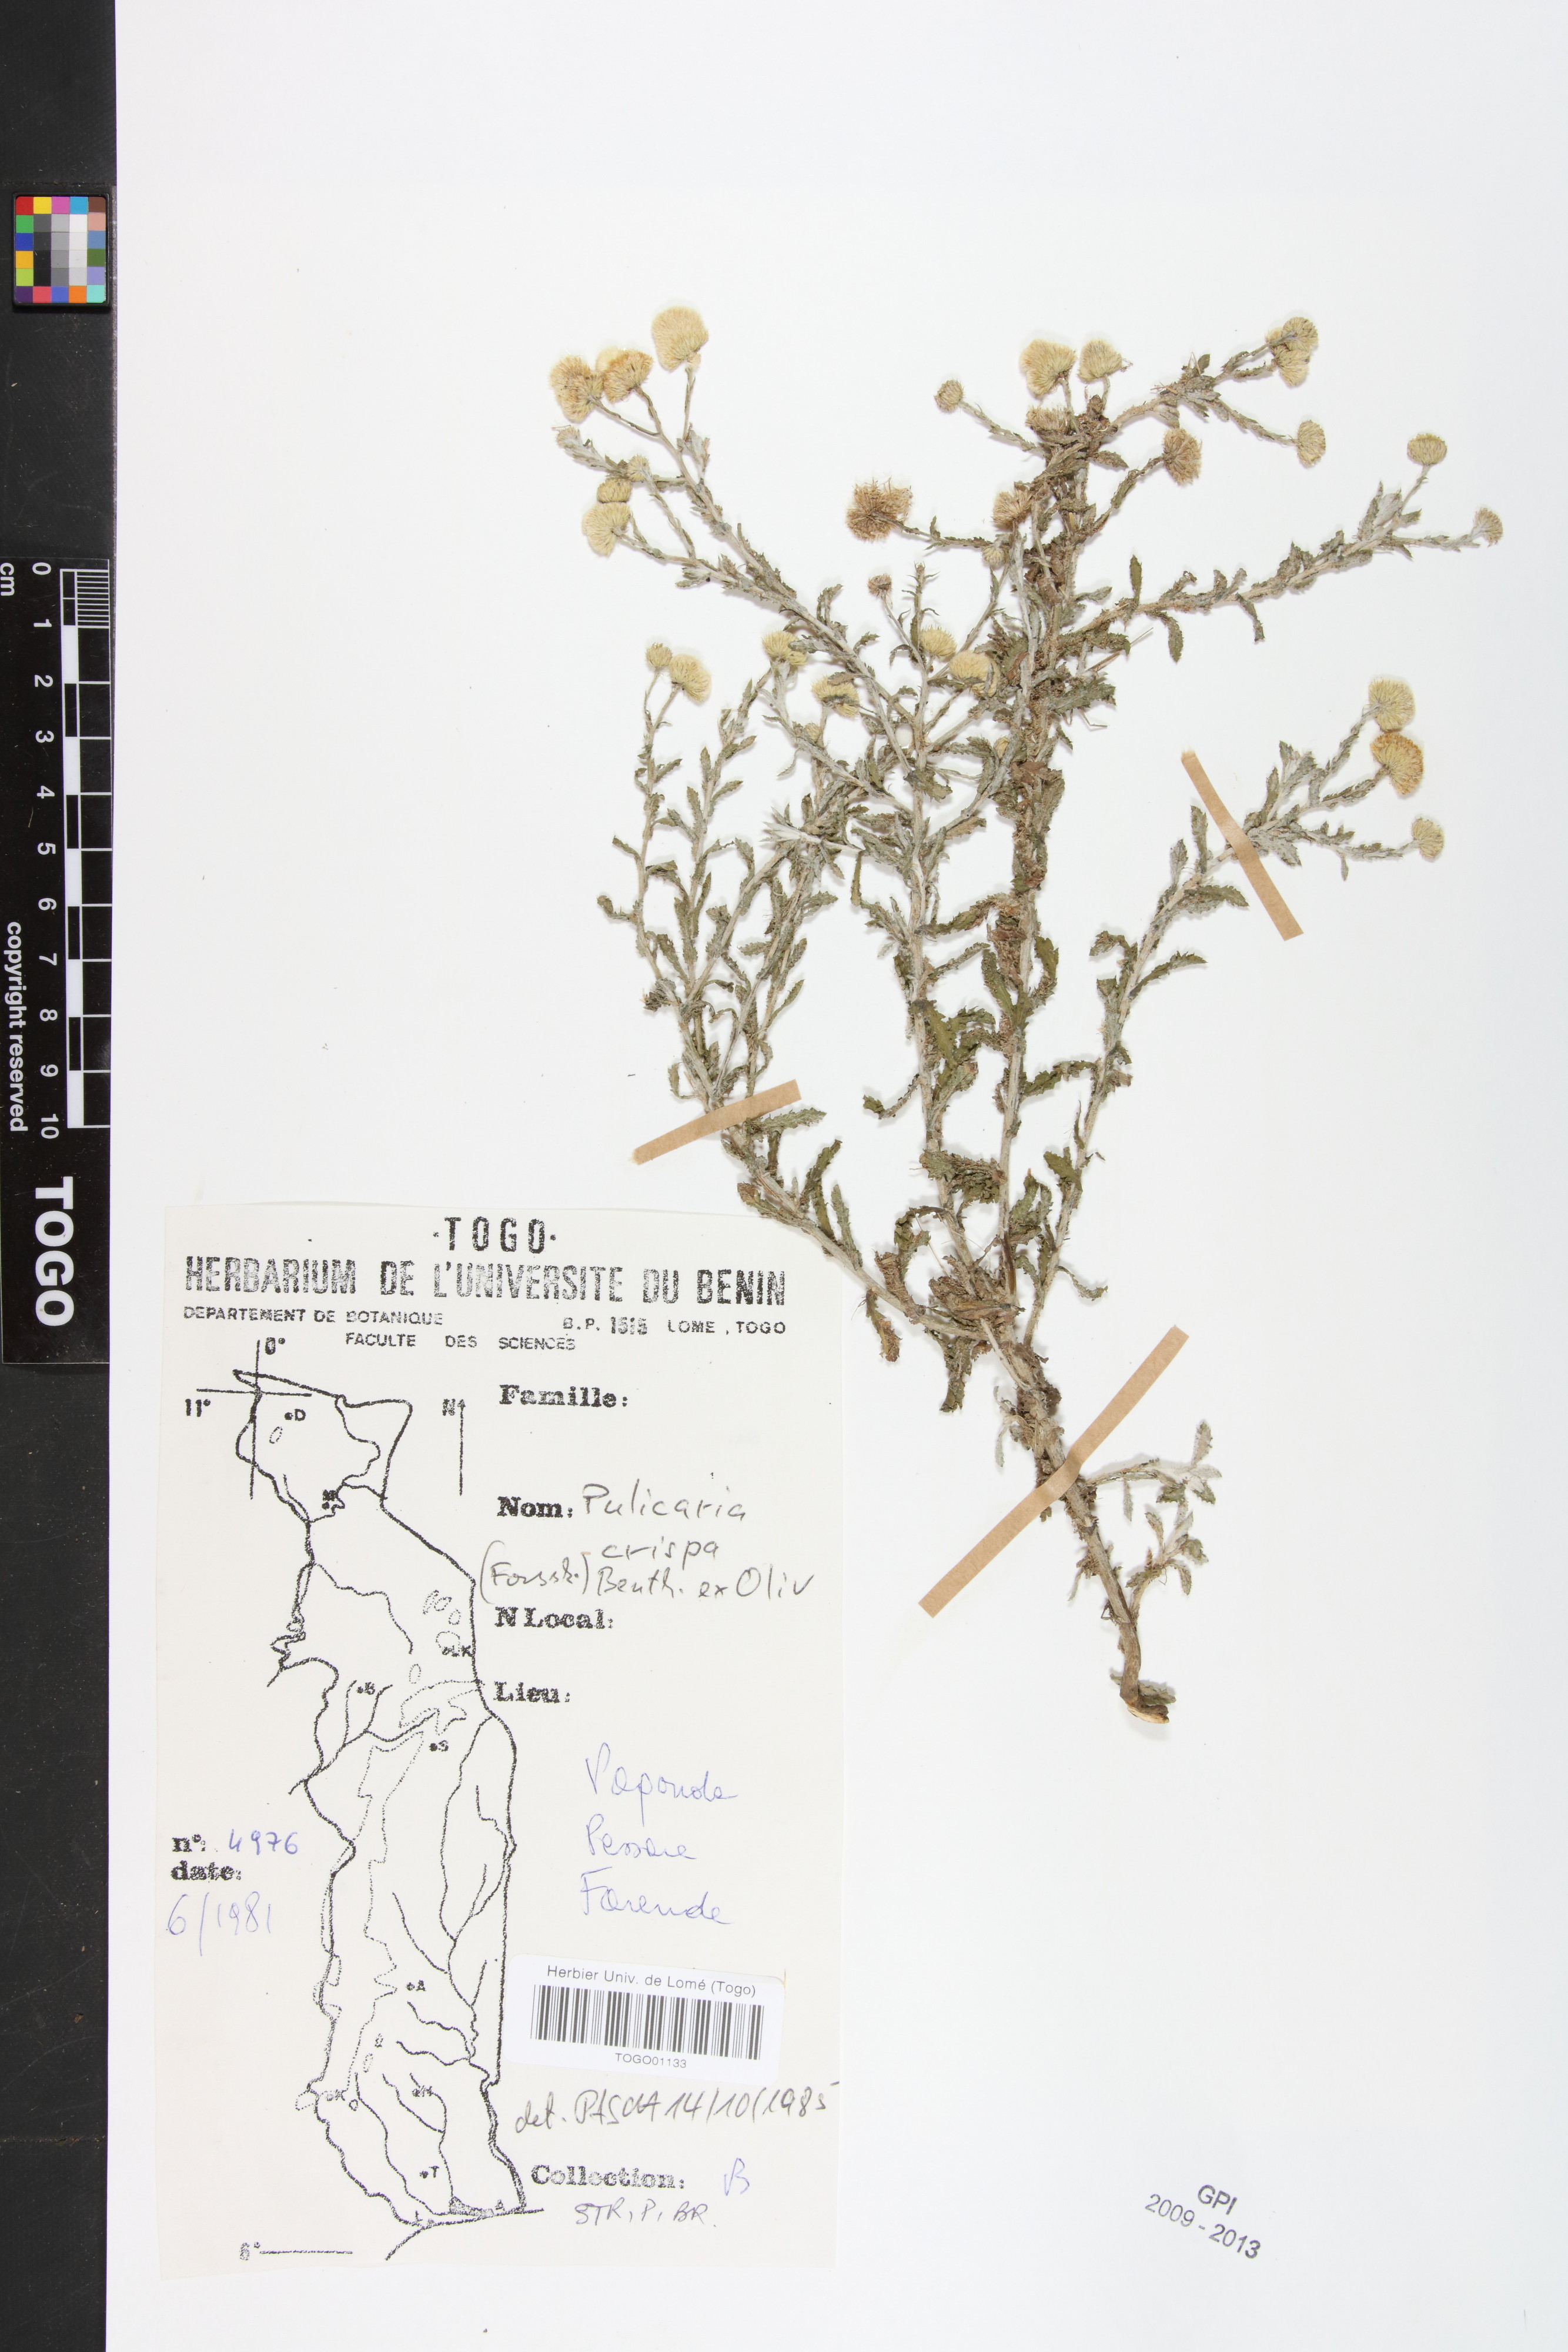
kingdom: Plantae
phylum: Tracheophyta
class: Magnoliopsida
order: Asterales
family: Asteraceae
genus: Pulicaria
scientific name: Pulicaria undulata
